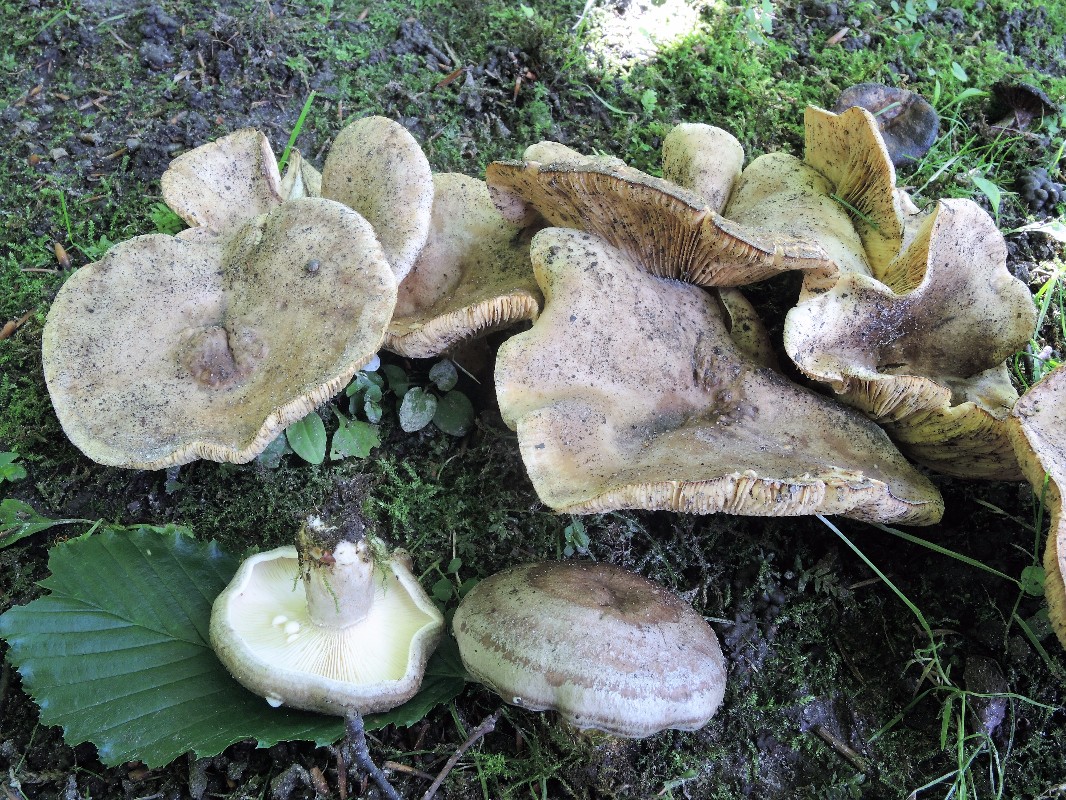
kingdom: Fungi
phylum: Basidiomycota
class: Agaricomycetes
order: Russulales
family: Russulaceae
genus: Lactarius
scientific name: Lactarius pyrogalus
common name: hassel-mælkehat
